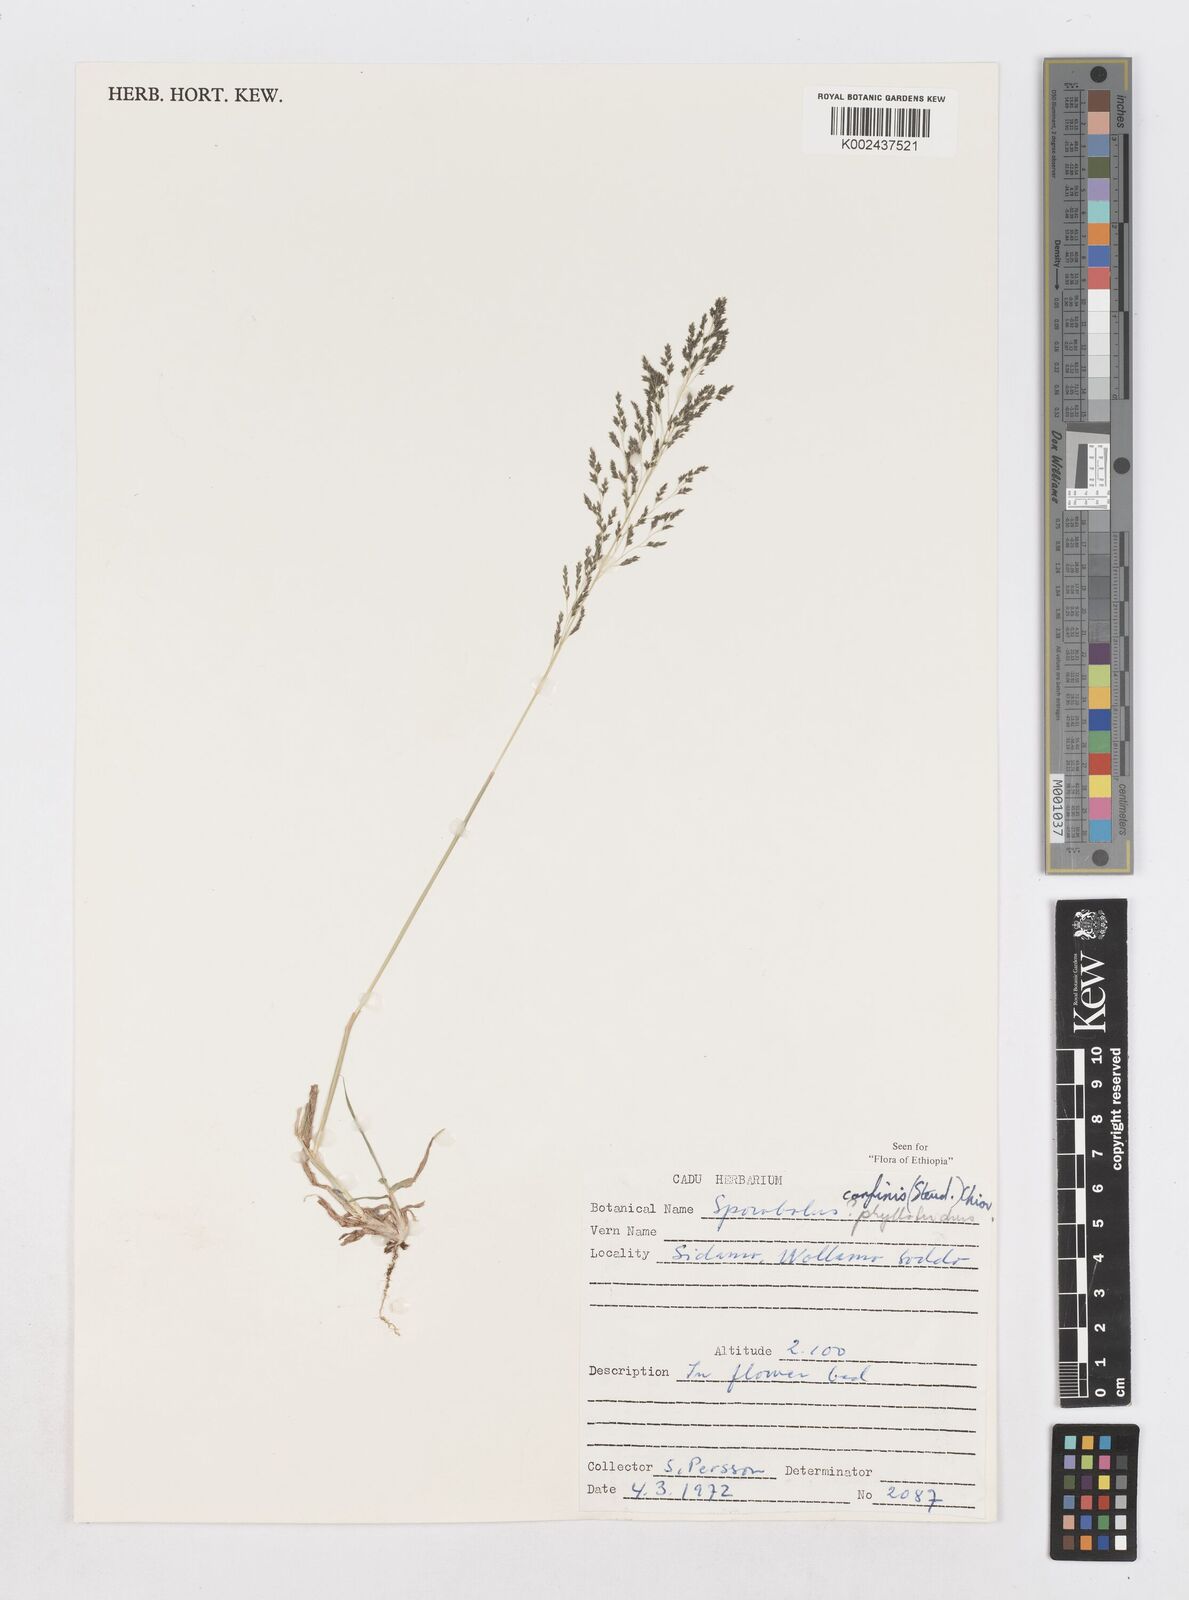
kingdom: Plantae
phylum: Tracheophyta
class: Liliopsida
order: Poales
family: Poaceae
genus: Sporobolus
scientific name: Sporobolus confinis
